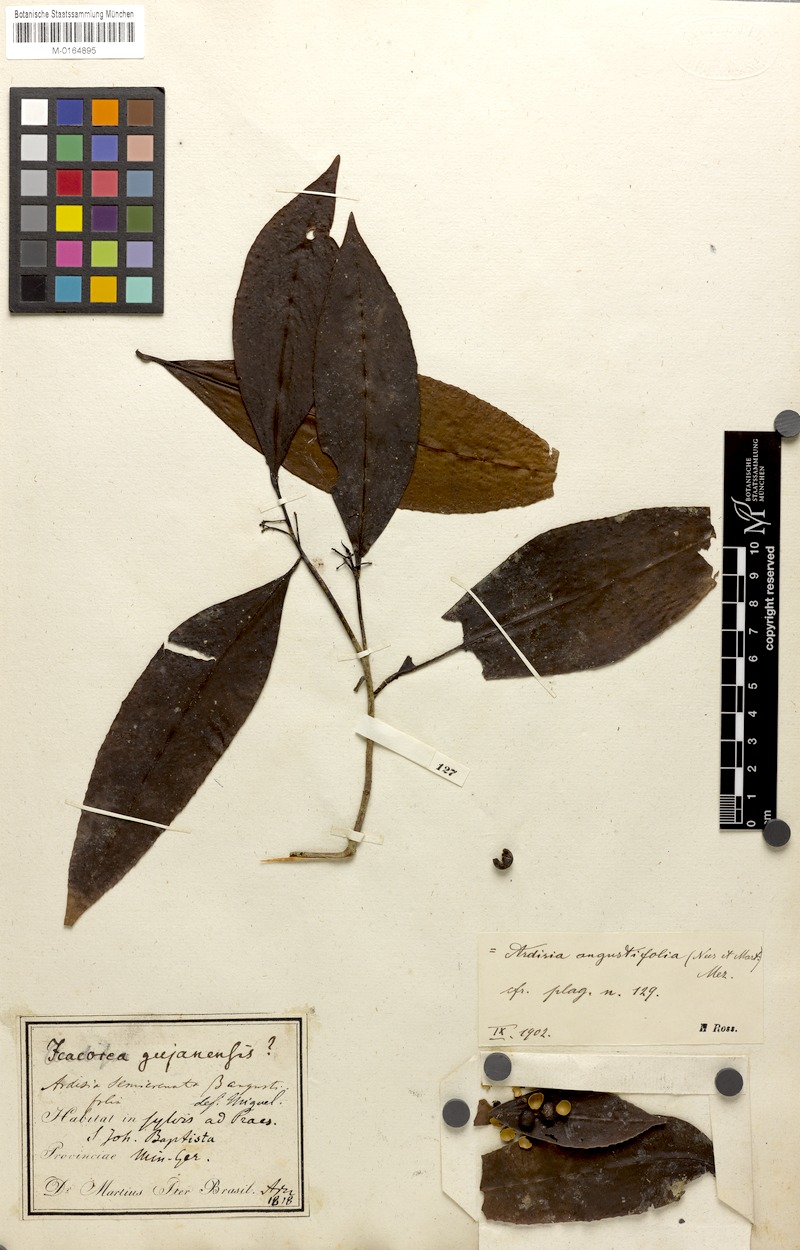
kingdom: Plantae
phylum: Tracheophyta
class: Magnoliopsida
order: Ericales
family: Primulaceae
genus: Ardisia
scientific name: Ardisia guianensis
